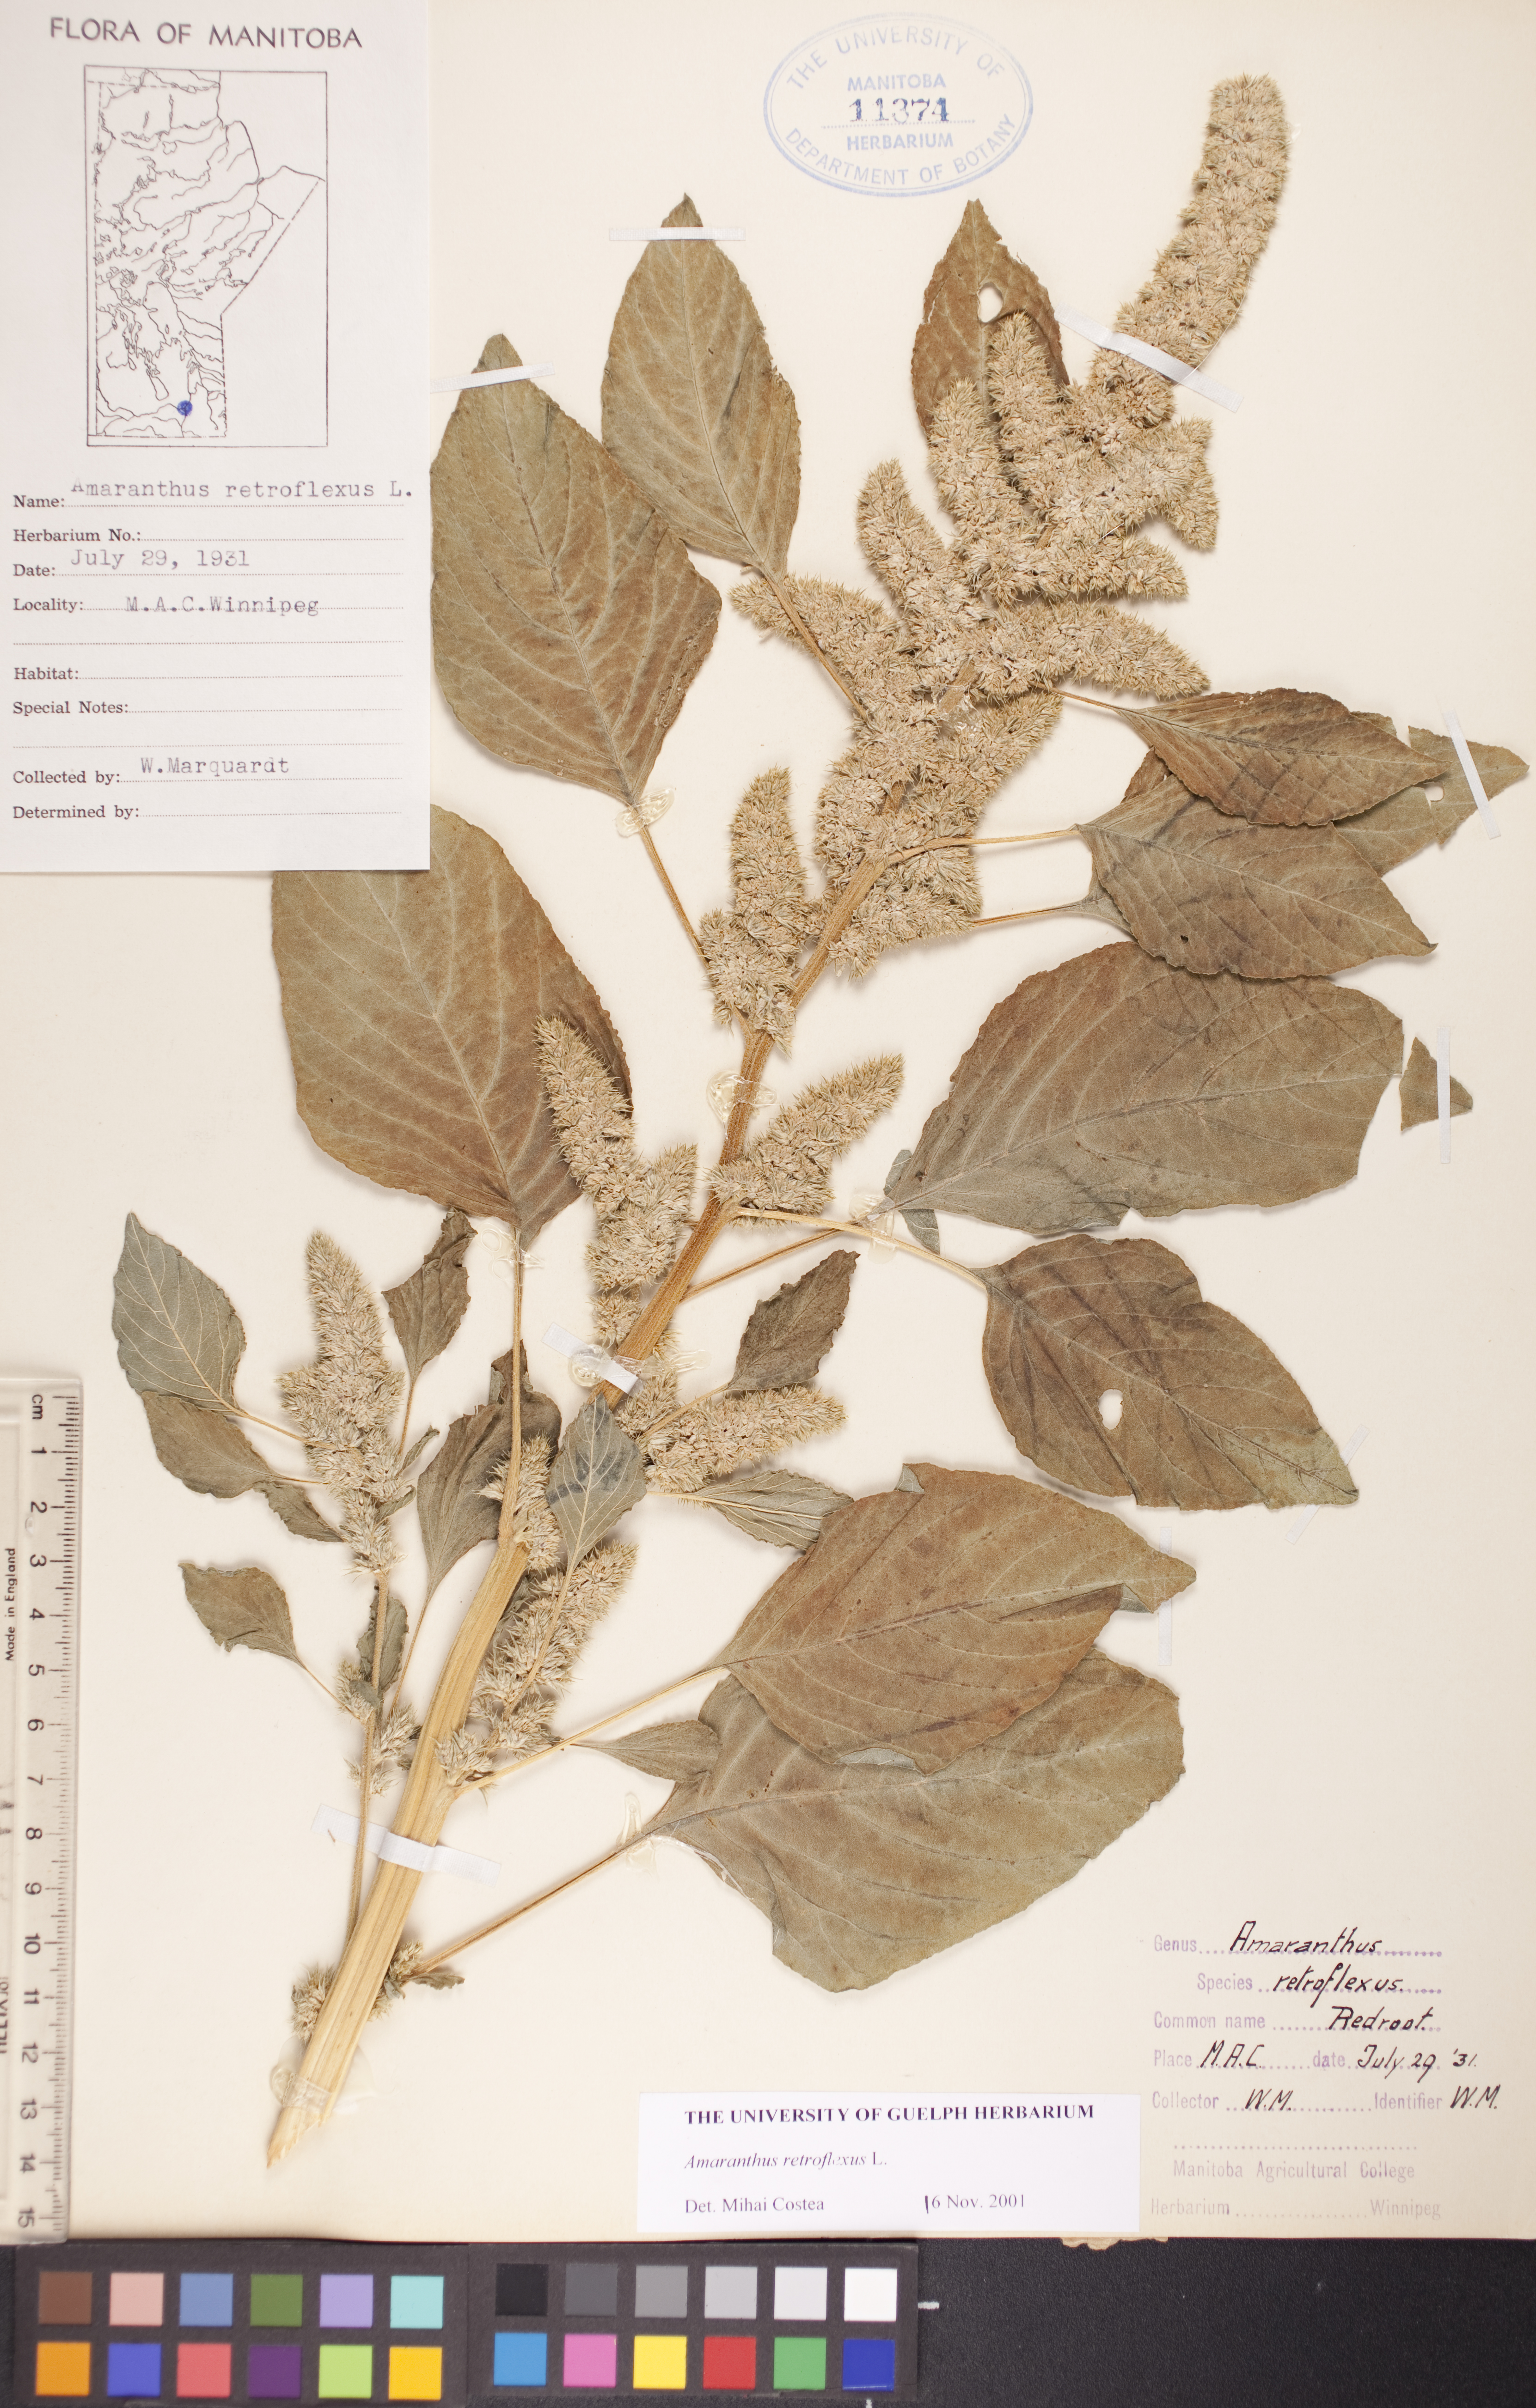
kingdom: Plantae
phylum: Tracheophyta
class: Magnoliopsida
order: Caryophyllales
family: Amaranthaceae
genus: Amaranthus
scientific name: Amaranthus retroflexus
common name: Redroot amaranth
